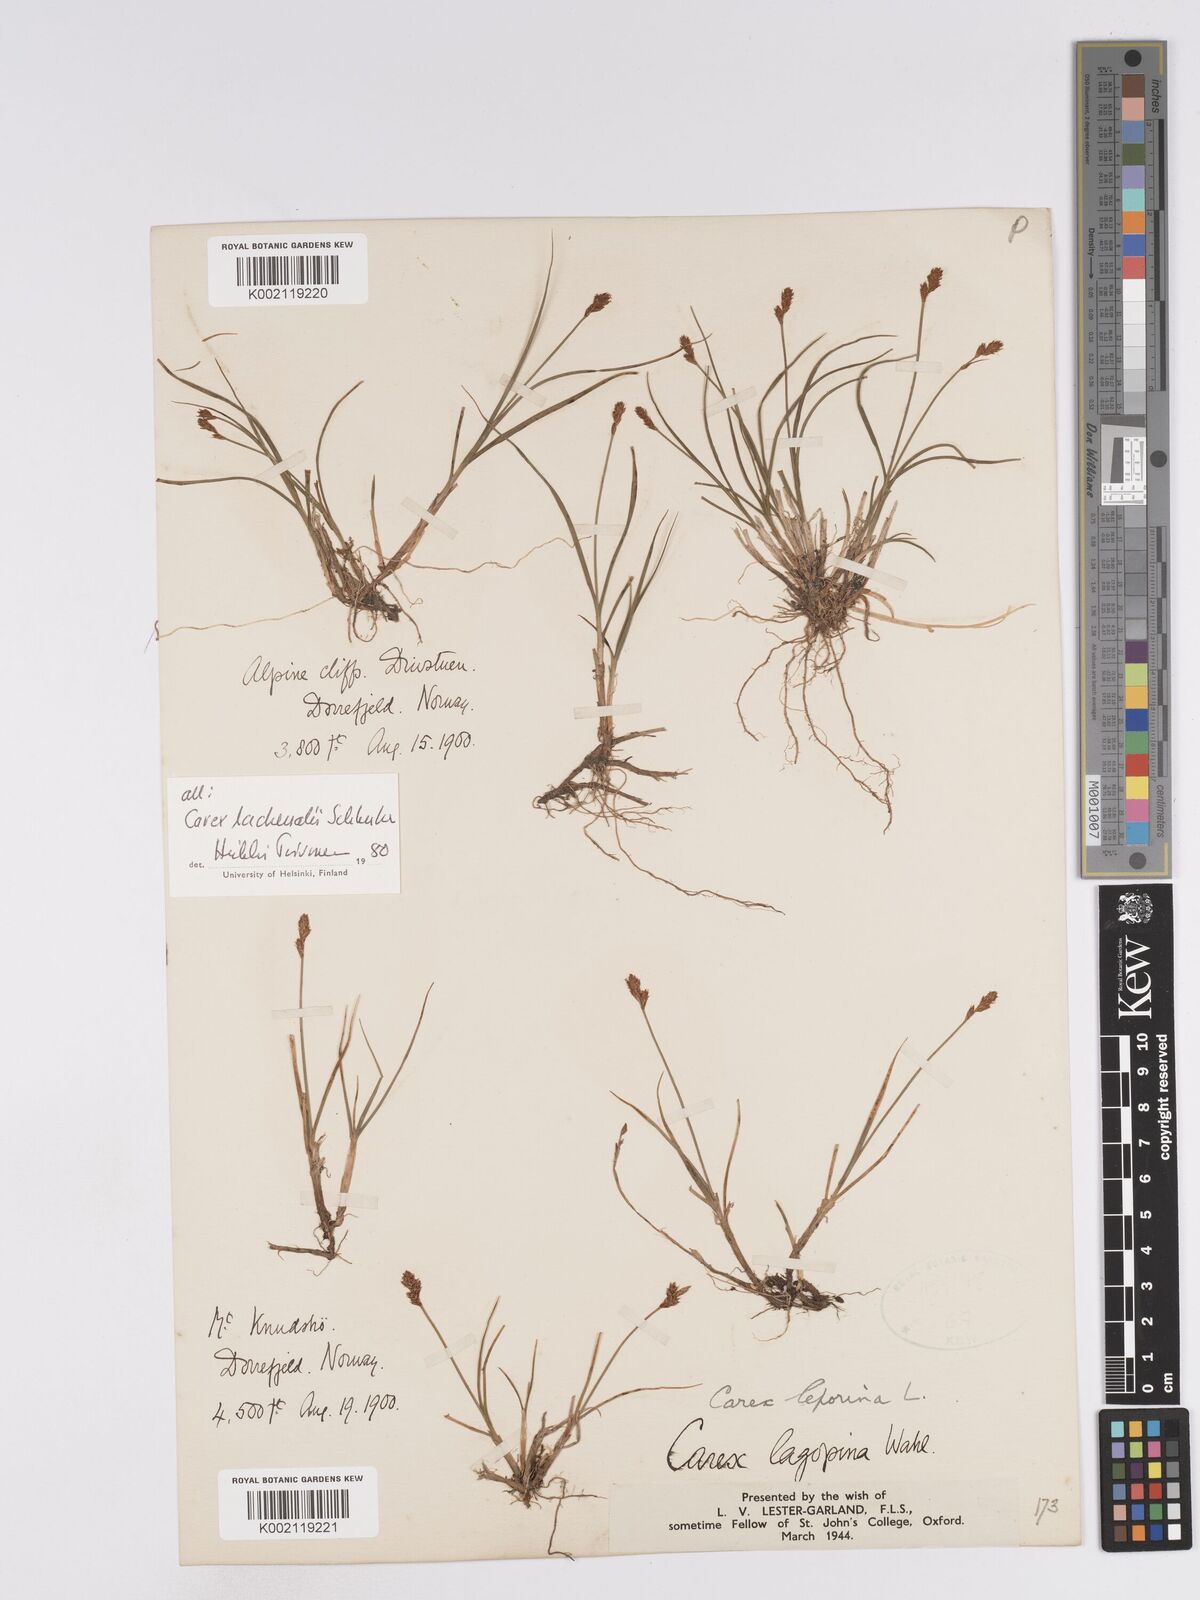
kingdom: Plantae
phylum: Tracheophyta
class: Liliopsida
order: Poales
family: Cyperaceae
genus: Carex
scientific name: Carex lachenalii
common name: Hare's-foot sedge
